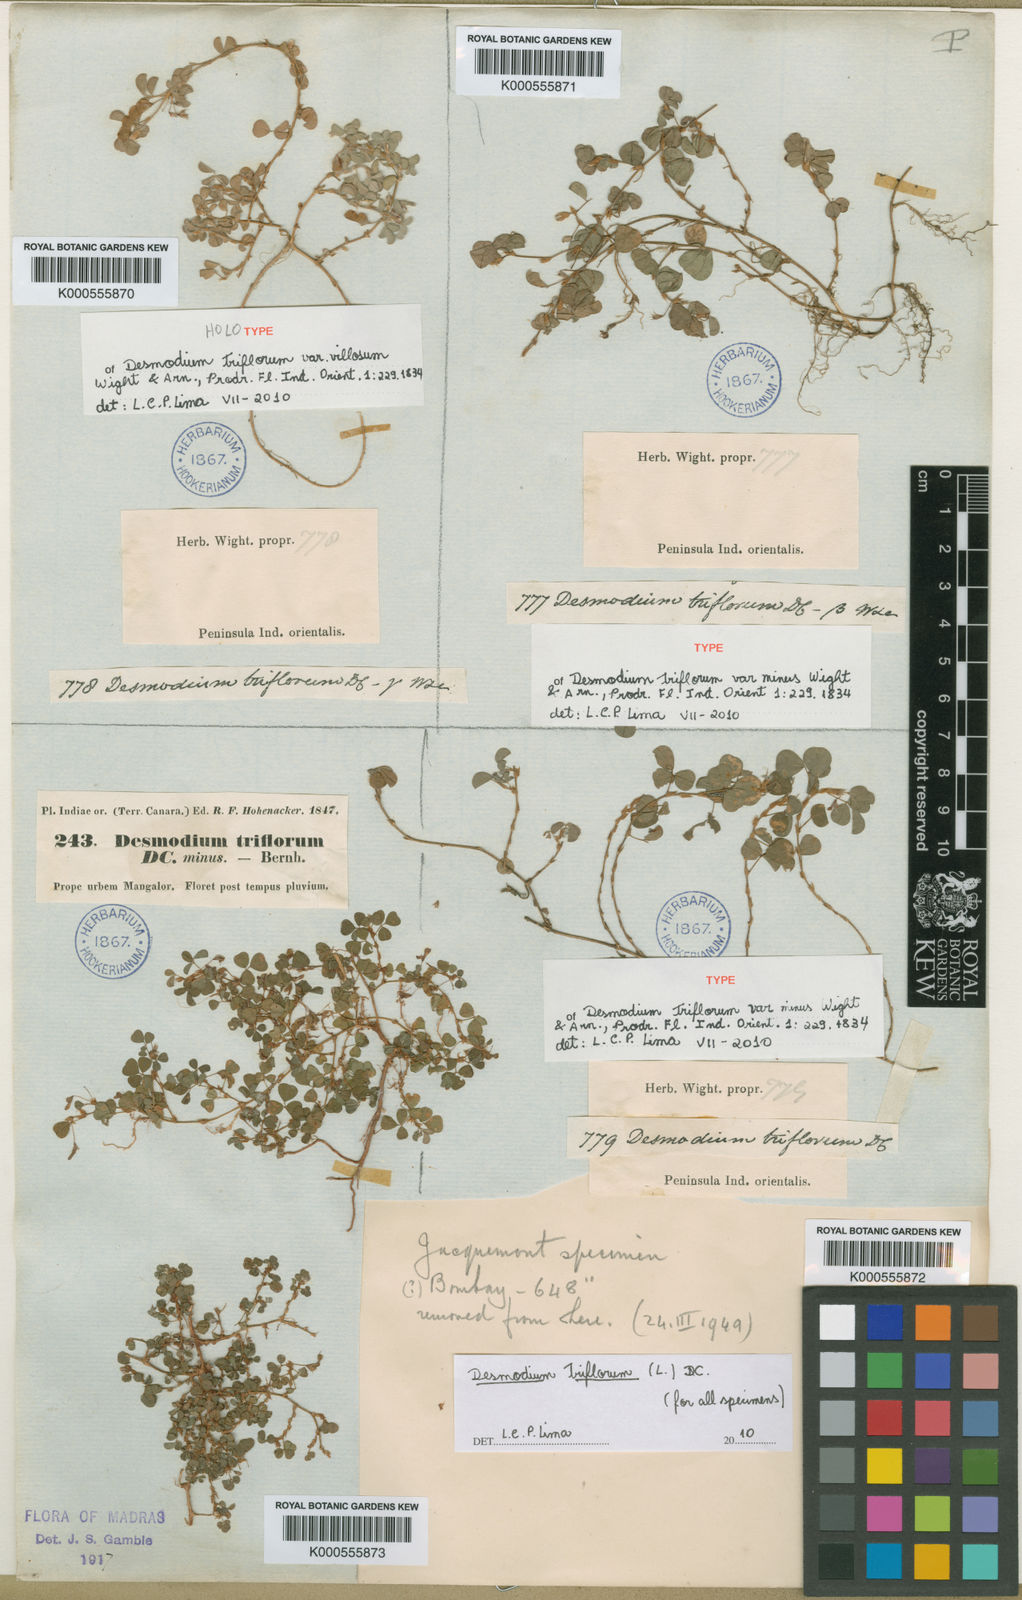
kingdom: Plantae
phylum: Tracheophyta
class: Magnoliopsida
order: Fabales
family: Fabaceae
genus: Grona
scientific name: Grona triflora
